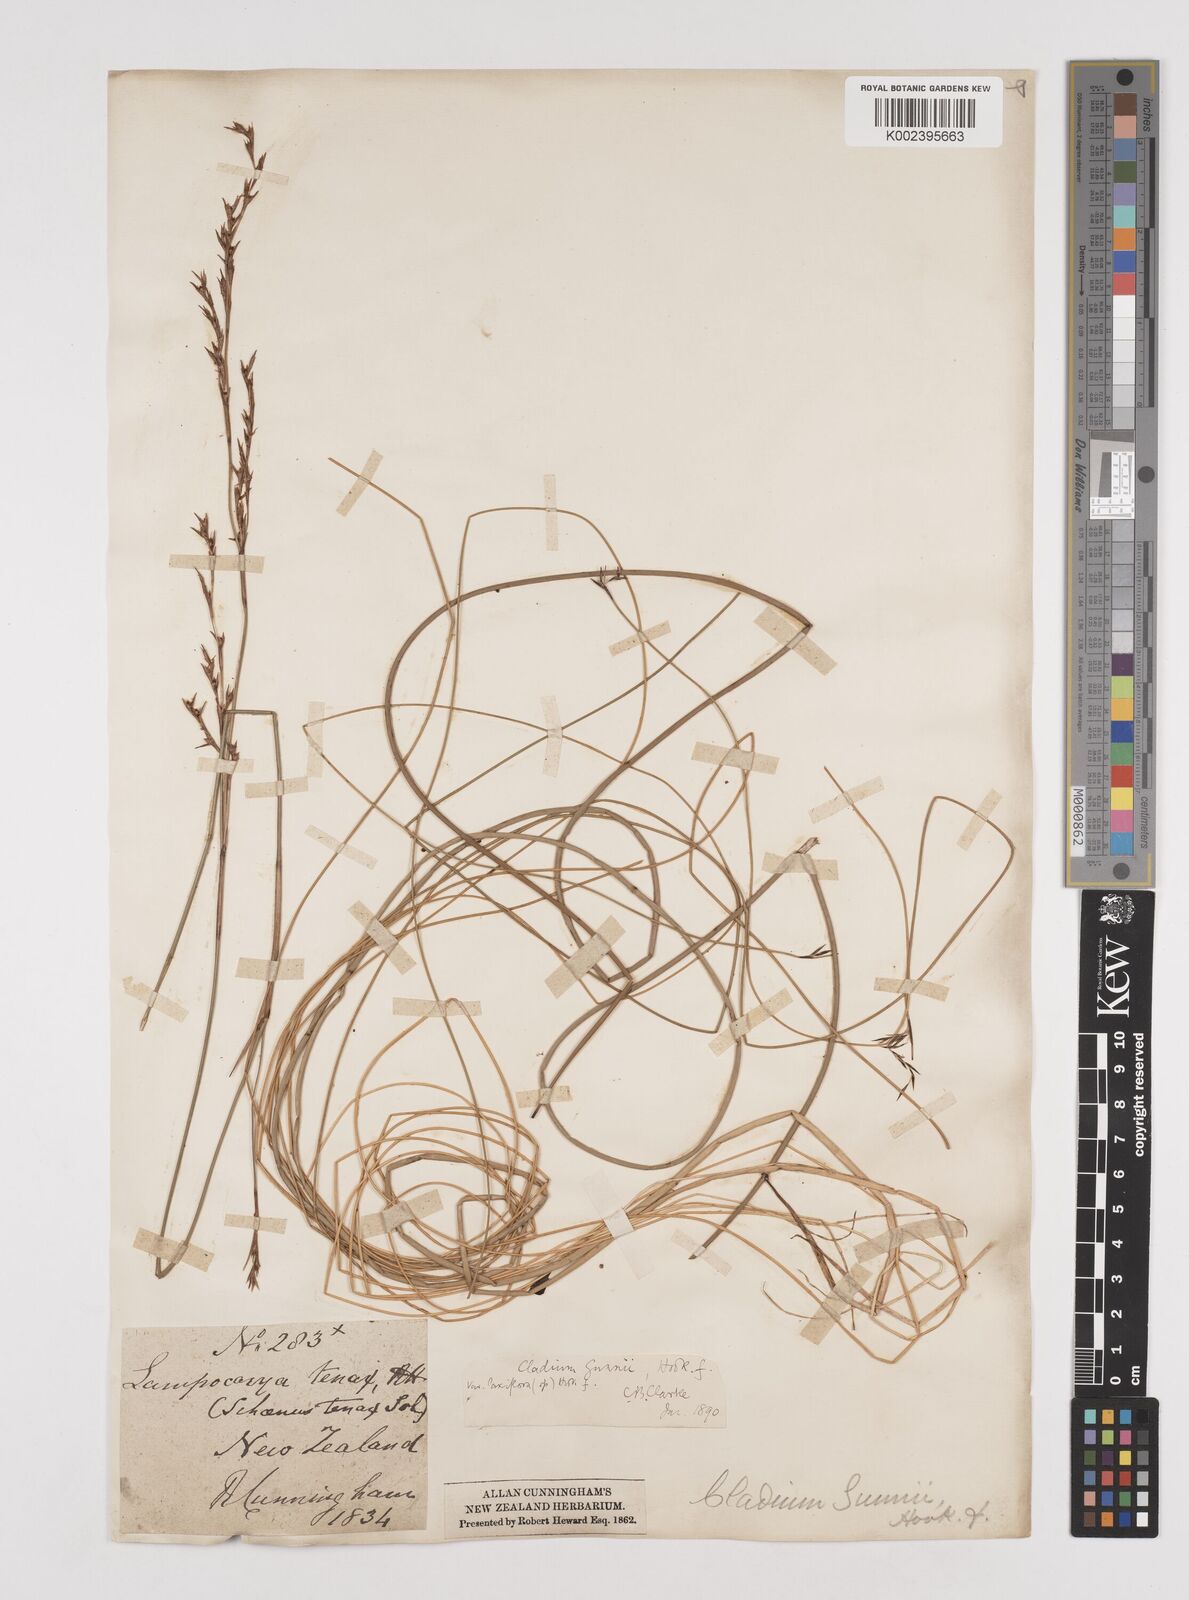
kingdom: Plantae
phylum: Tracheophyta
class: Liliopsida
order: Poales
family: Cyperaceae
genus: Machaerina
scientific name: Machaerina gunnii
